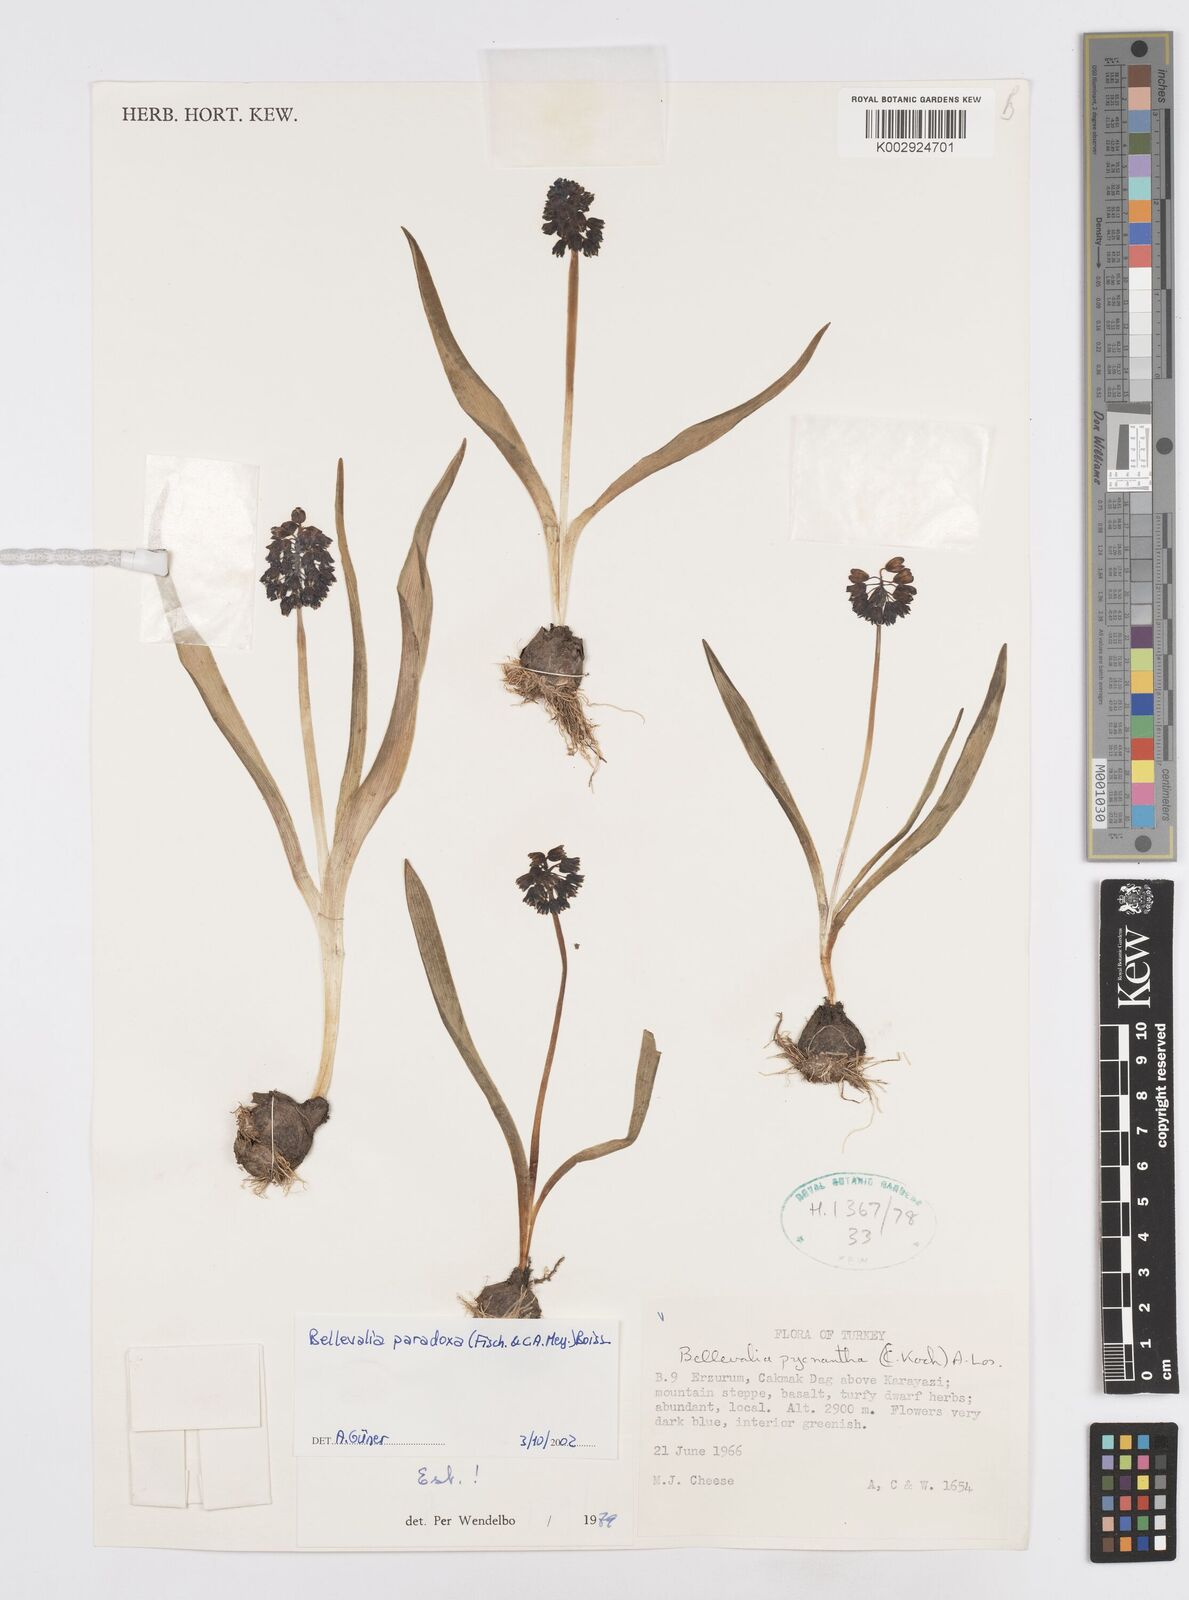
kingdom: Plantae
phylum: Tracheophyta
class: Liliopsida
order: Asparagales
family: Asparagaceae
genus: Bellevalia
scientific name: Bellevalia paradoxa
